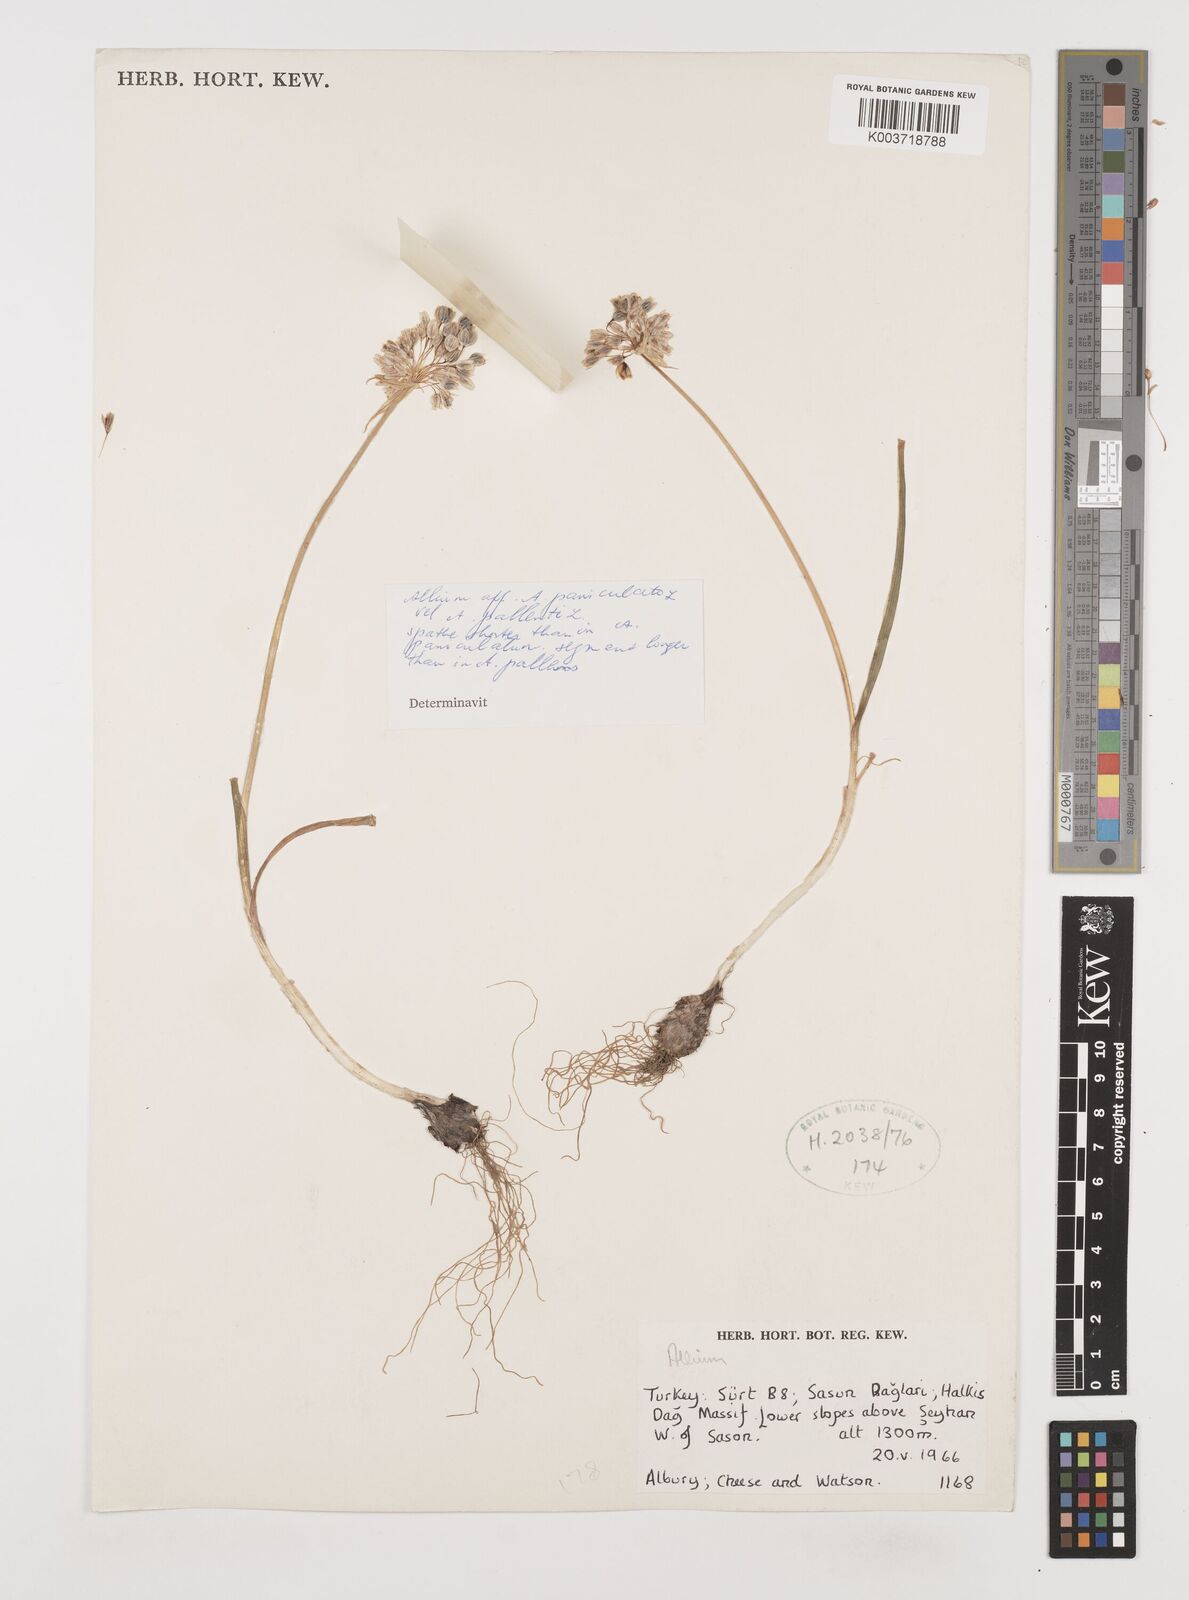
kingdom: Plantae
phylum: Tracheophyta
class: Liliopsida
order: Asparagales
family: Amaryllidaceae
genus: Allium
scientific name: Allium paniculatum
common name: Pale garlic
